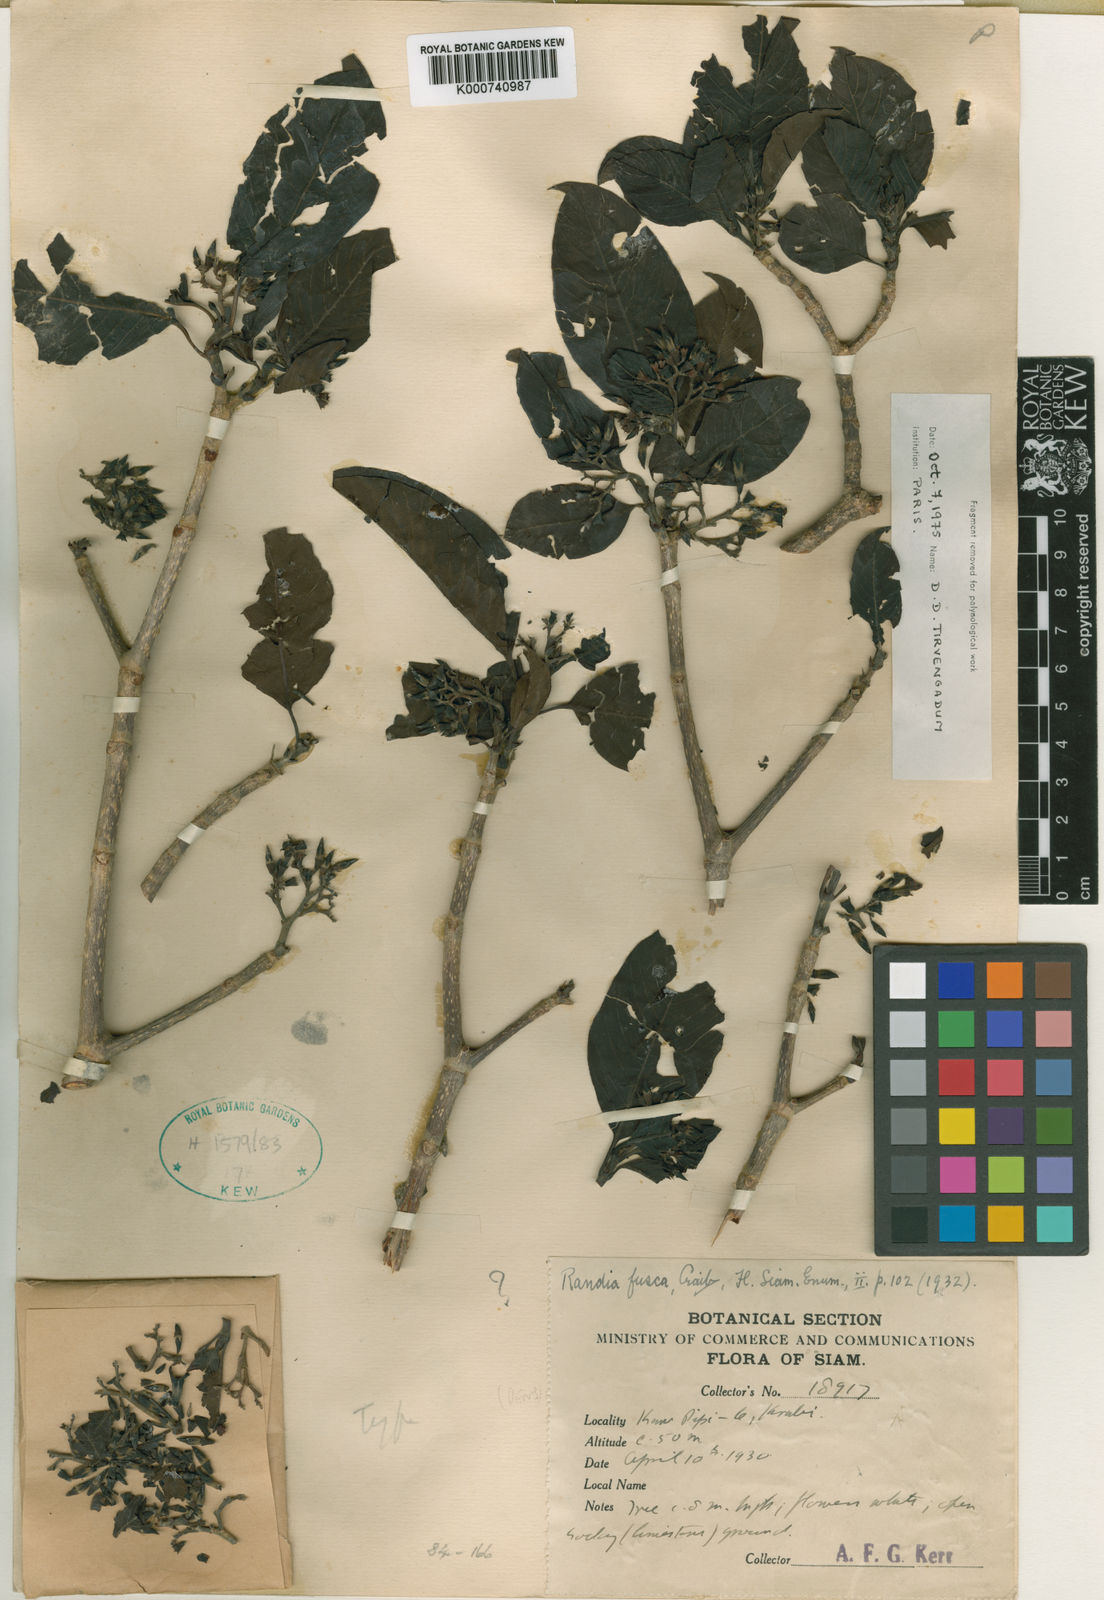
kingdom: Plantae
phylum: Tracheophyta
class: Magnoliopsida
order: Gentianales
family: Rubiaceae
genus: Vidalasia
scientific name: Vidalasia fusca
